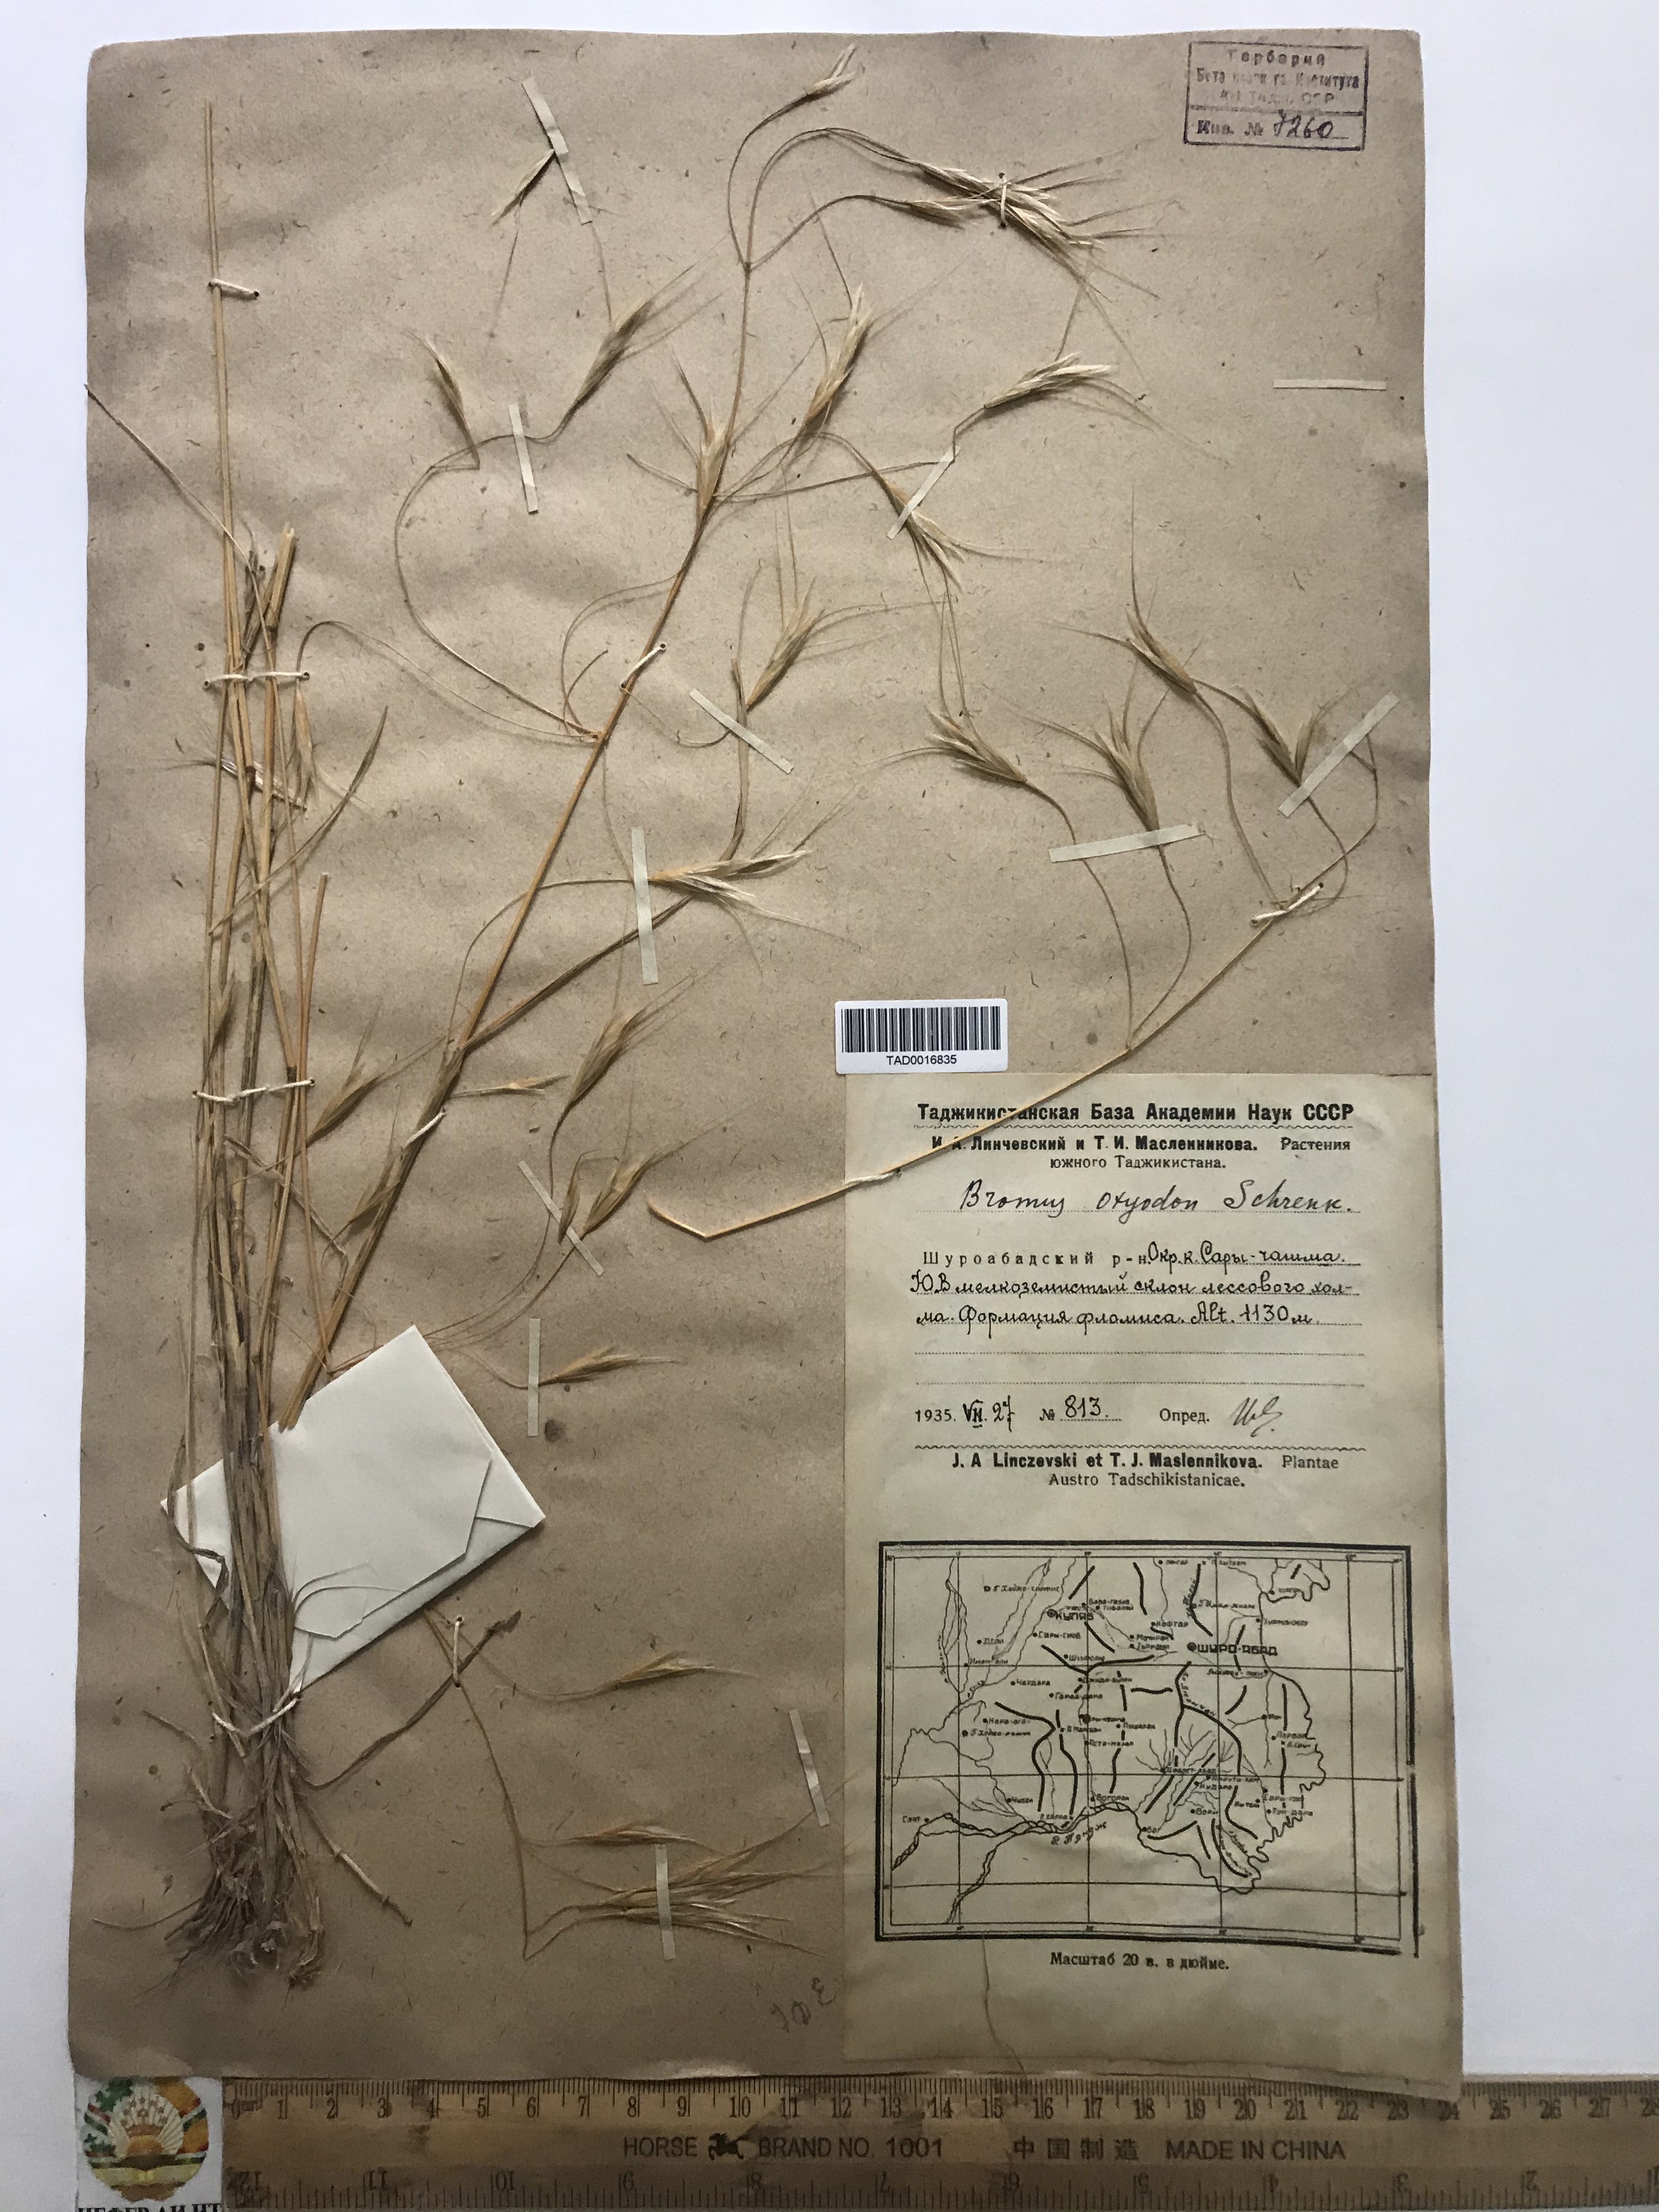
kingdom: Plantae
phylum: Tracheophyta
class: Liliopsida
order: Poales
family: Poaceae
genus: Bromus
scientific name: Bromus oxyodon
